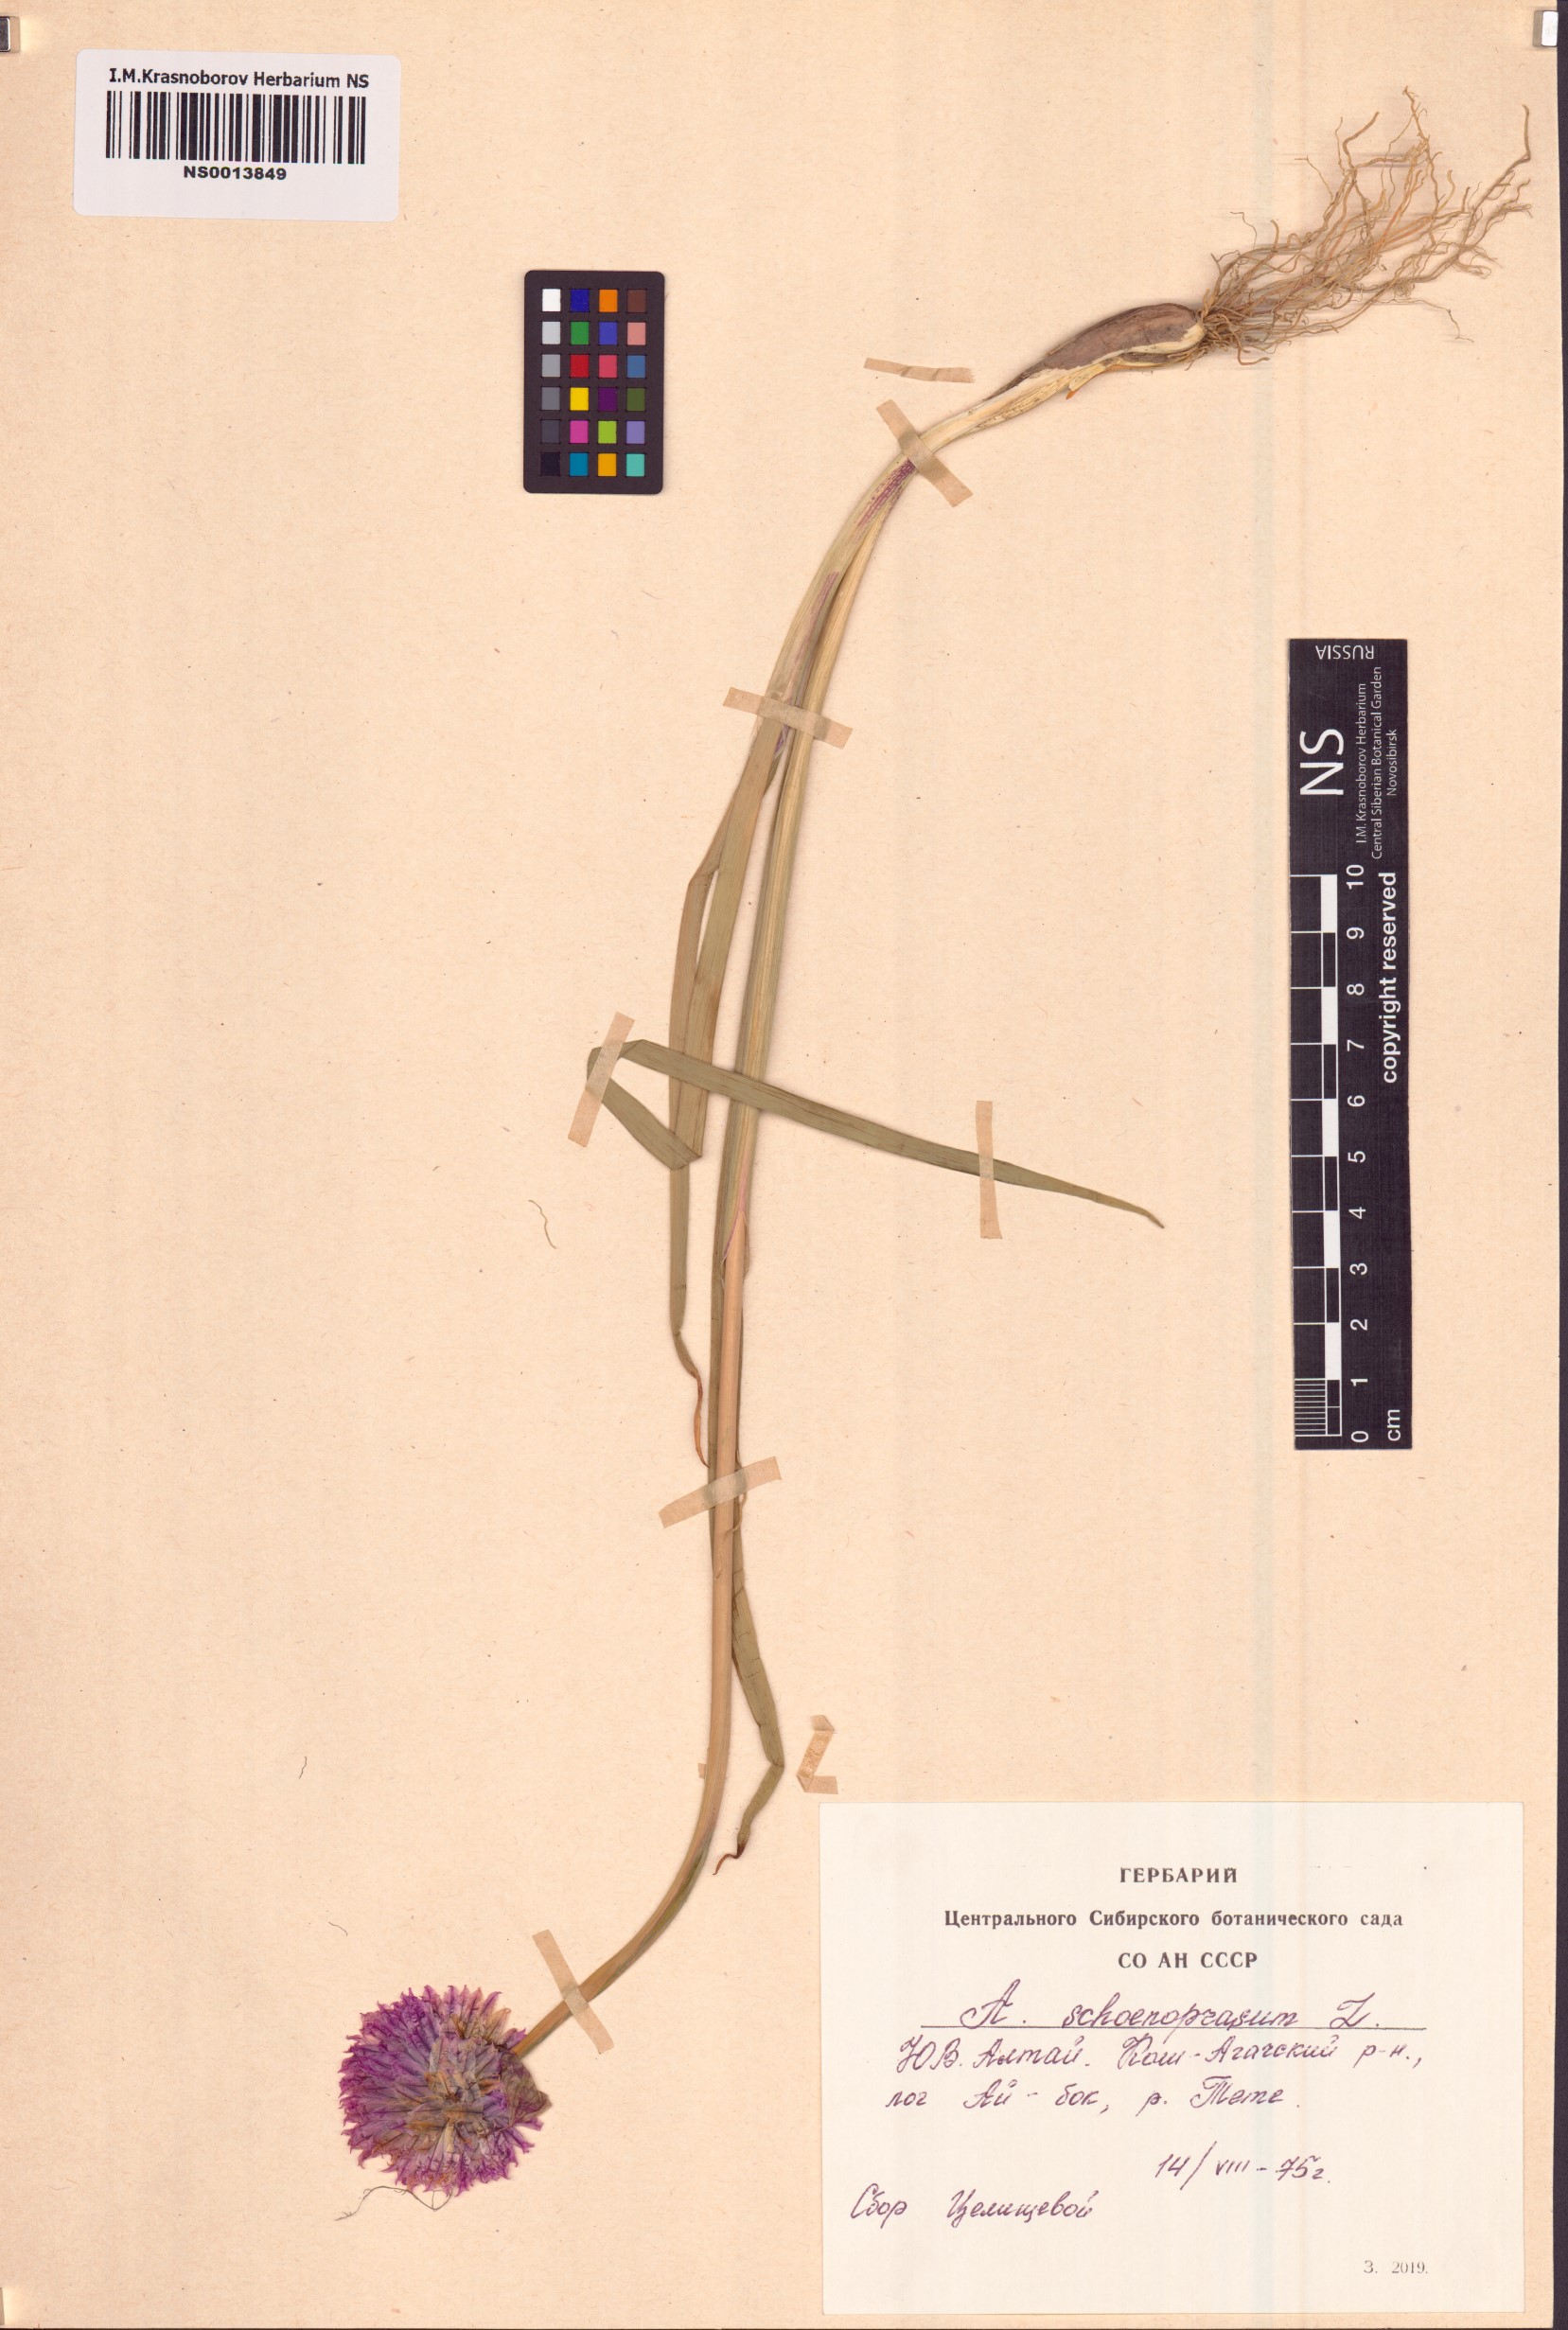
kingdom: Plantae
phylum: Tracheophyta
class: Liliopsida
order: Asparagales
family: Amaryllidaceae
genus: Allium
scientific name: Allium schoenoprasum
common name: Chives
